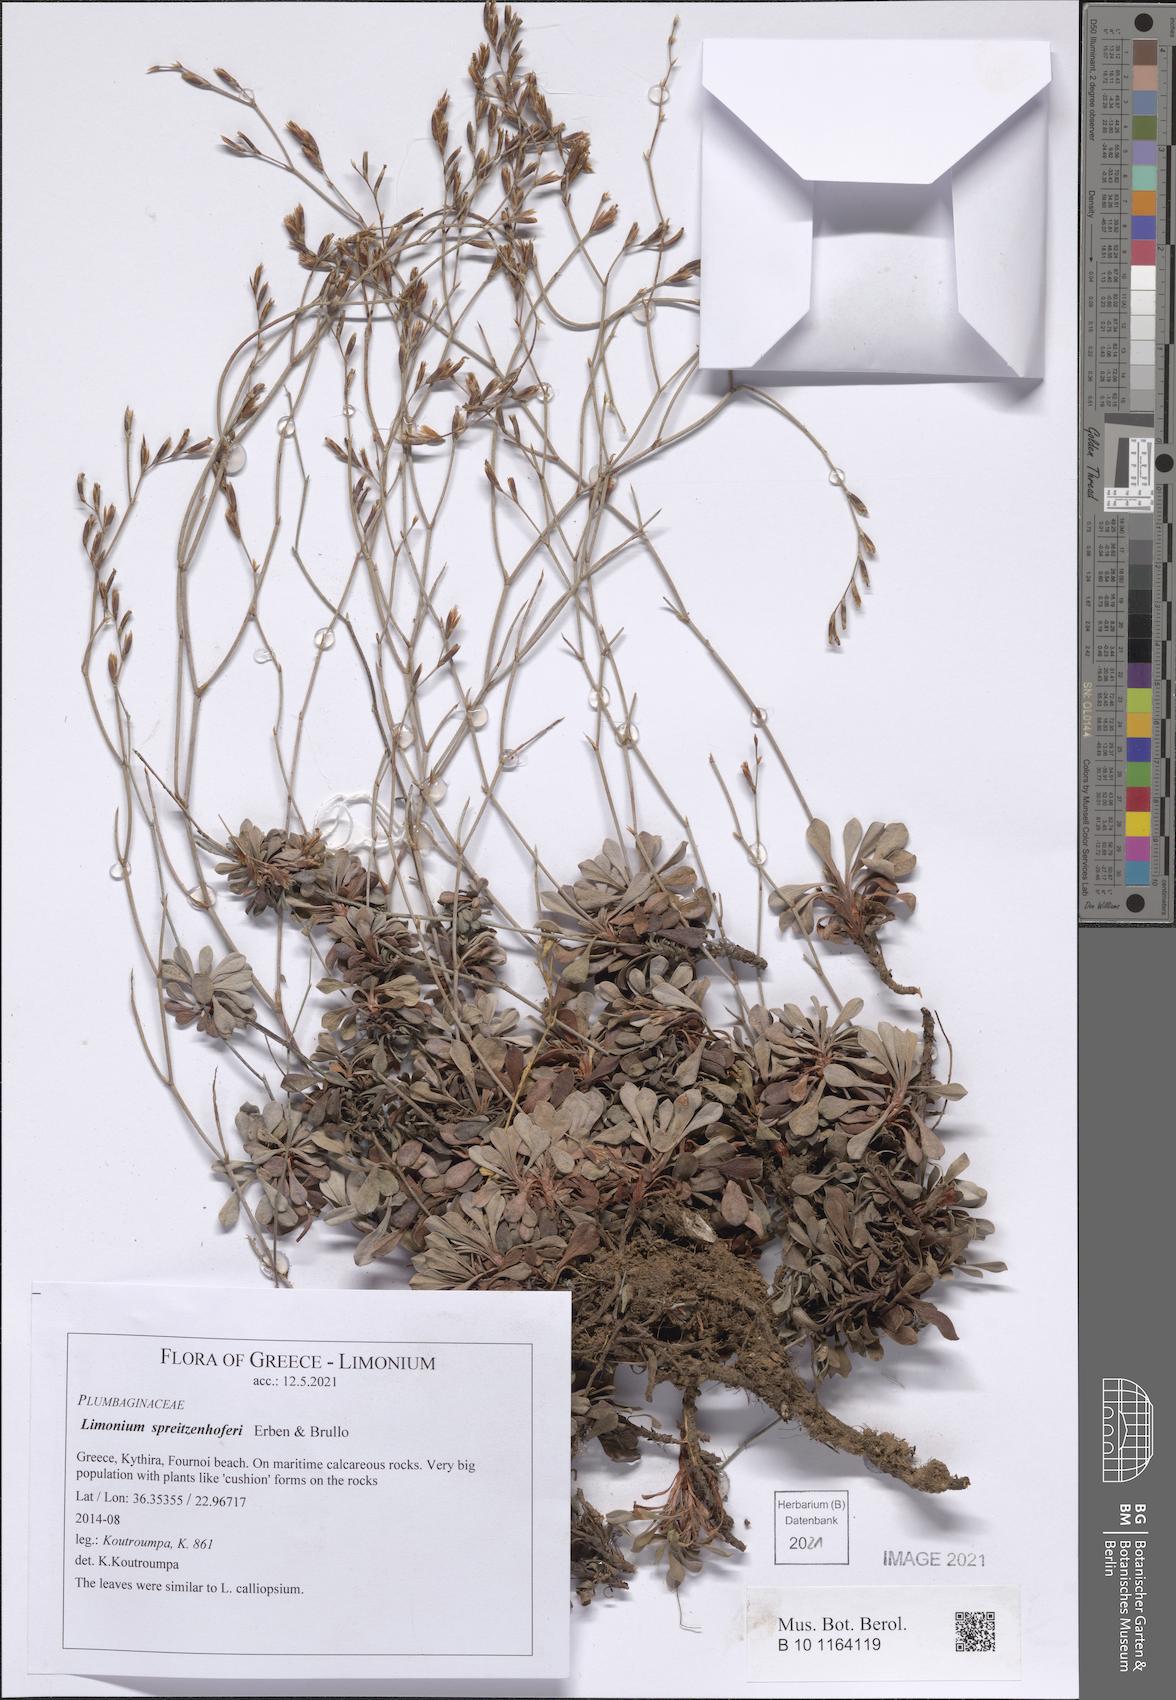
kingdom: Plantae
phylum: Tracheophyta
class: Magnoliopsida
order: Caryophyllales
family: Plumbaginaceae
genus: Limonium
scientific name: Limonium spreitzenhoferi
